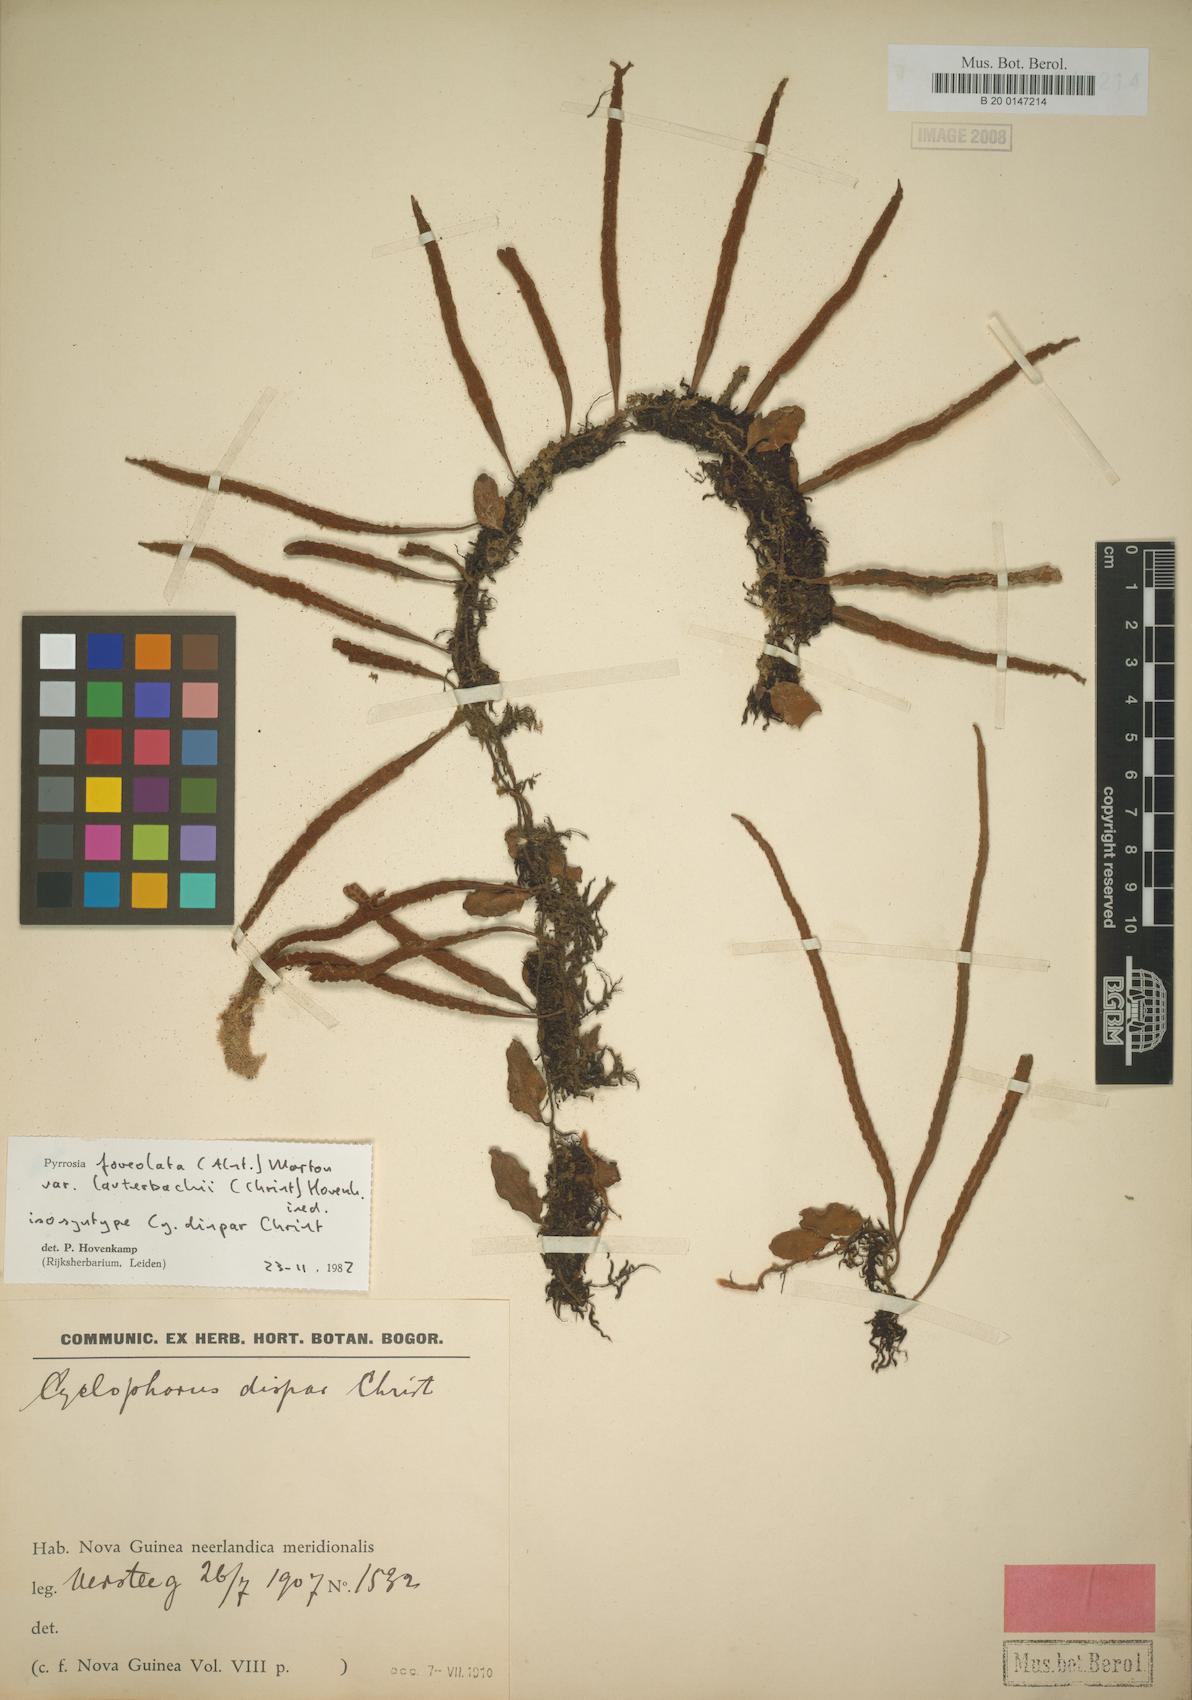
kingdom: Plantae
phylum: Tracheophyta
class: Polypodiopsida
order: Polypodiales
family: Polypodiaceae
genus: Pyrrosia
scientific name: Pyrrosia foveolata
